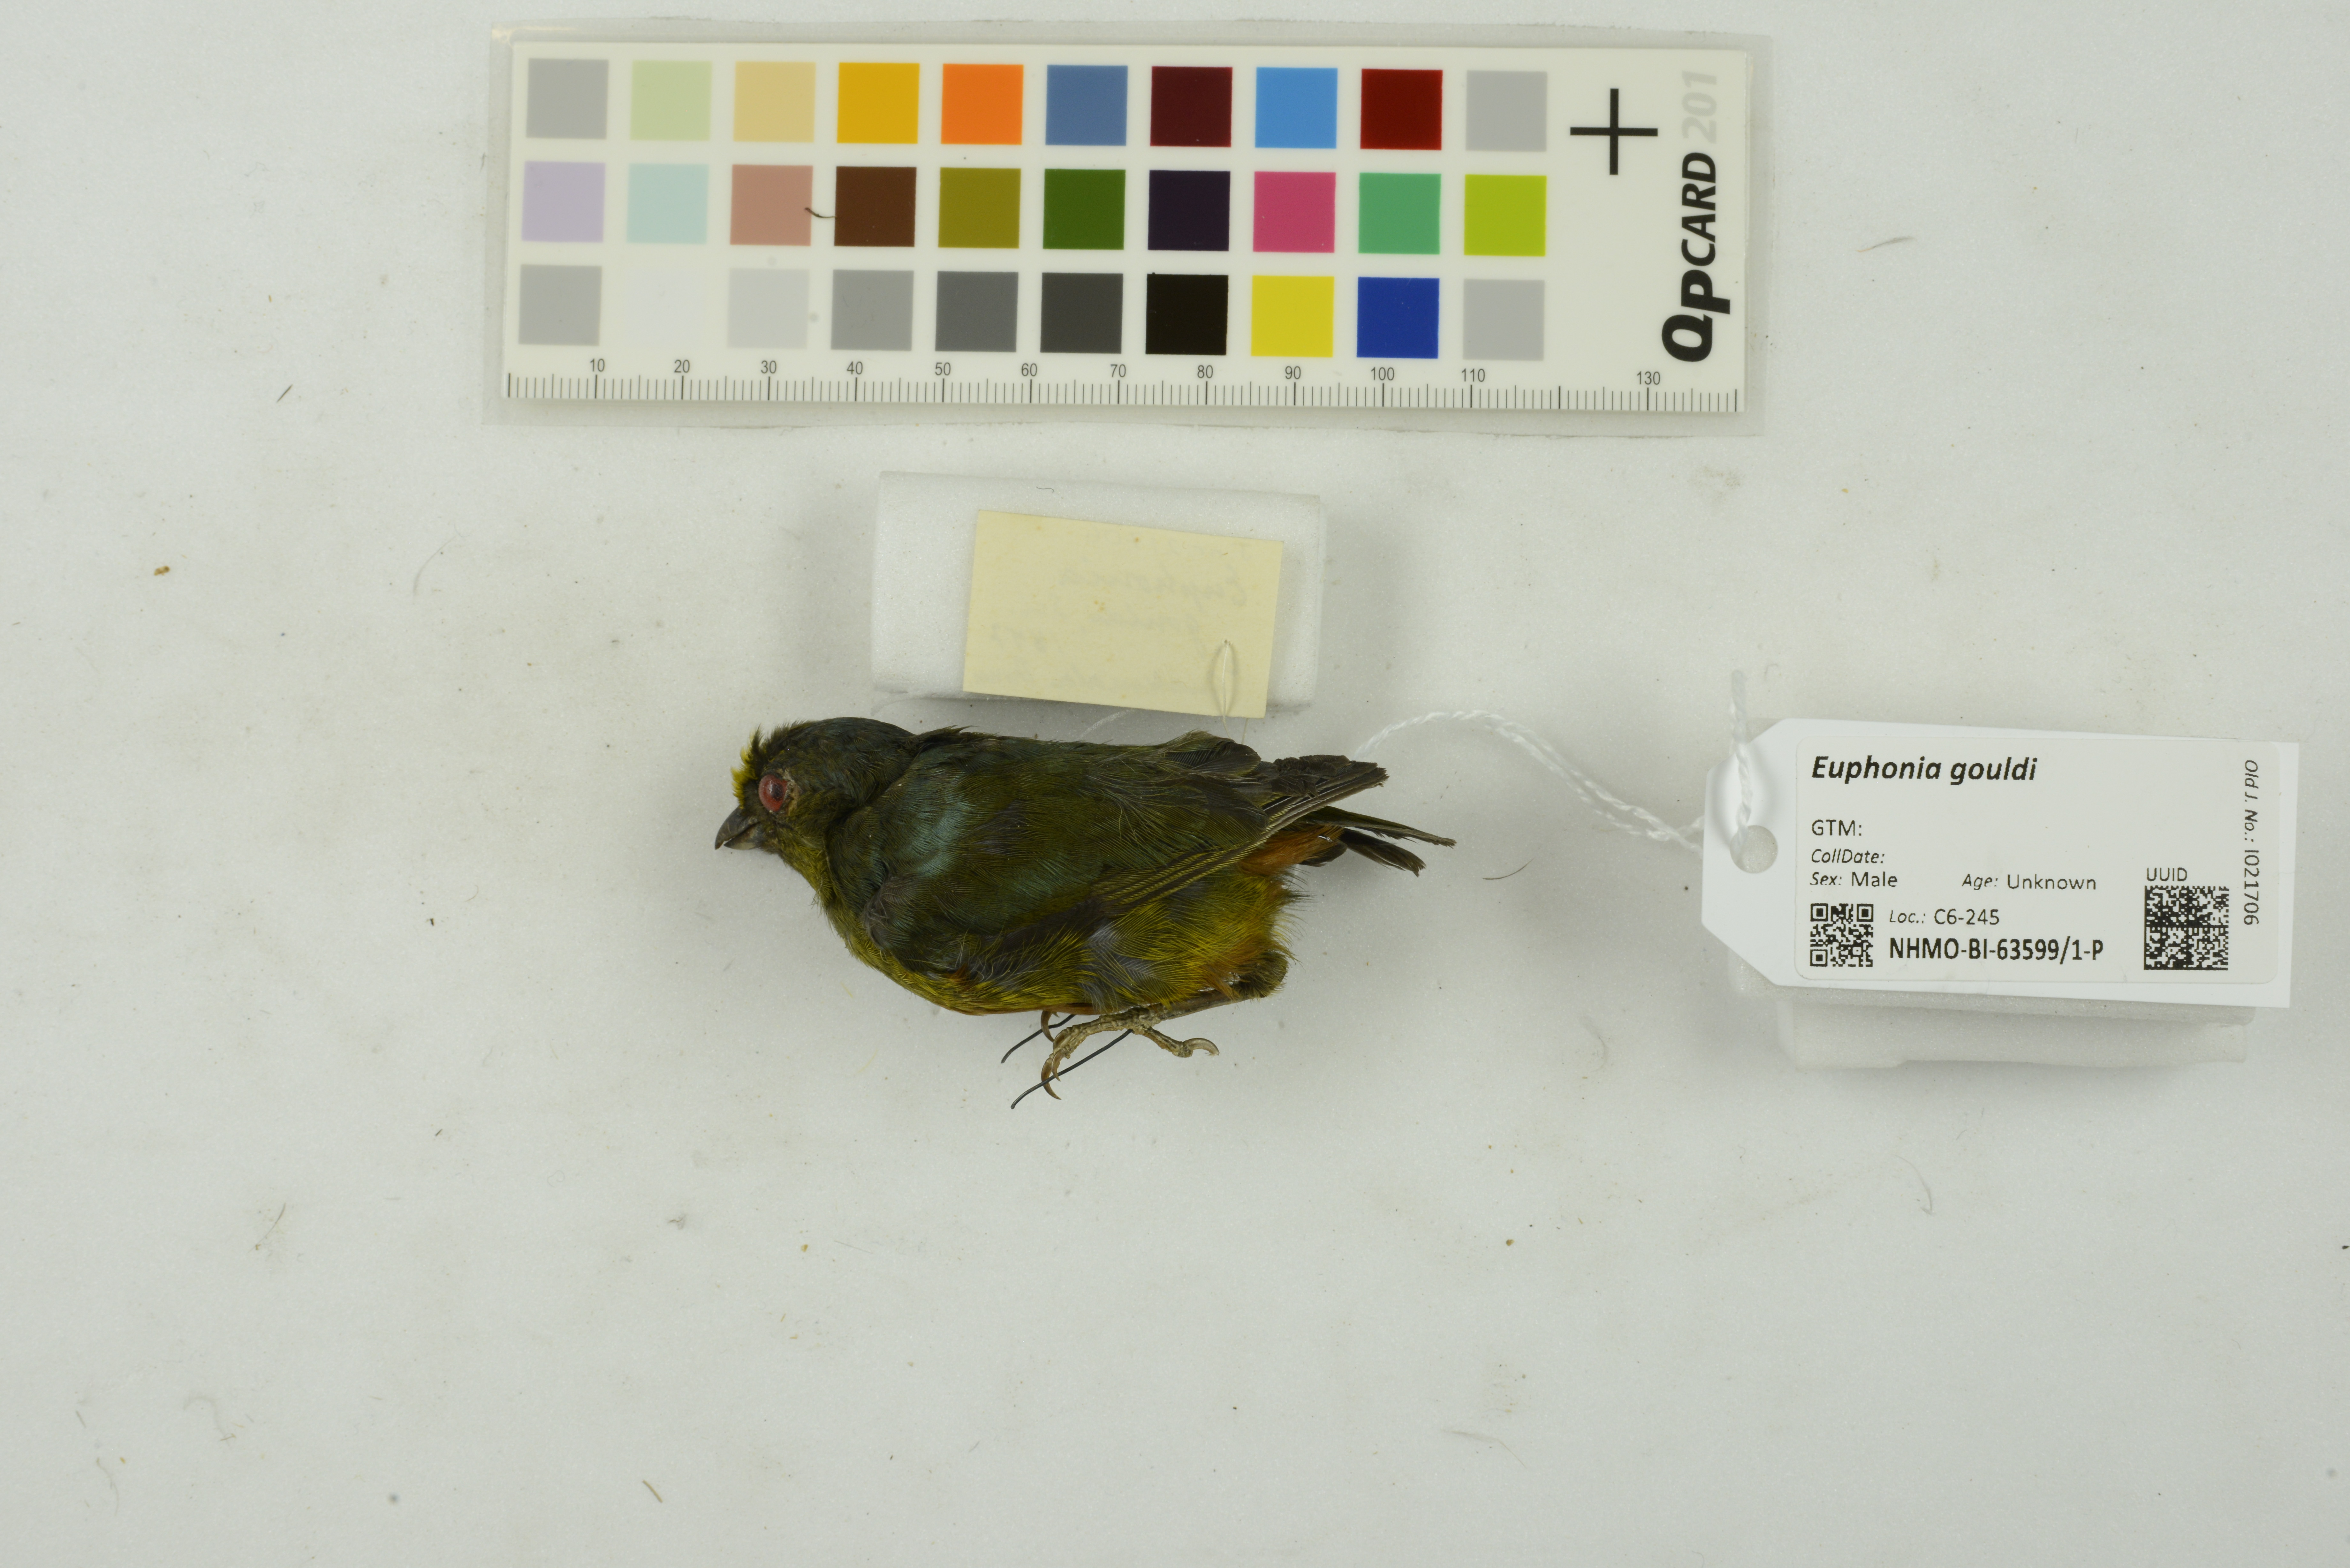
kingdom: Animalia
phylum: Chordata
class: Aves
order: Passeriformes
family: Fringillidae
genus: Euphonia
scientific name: Euphonia gouldi
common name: Olive-backed euphonia
